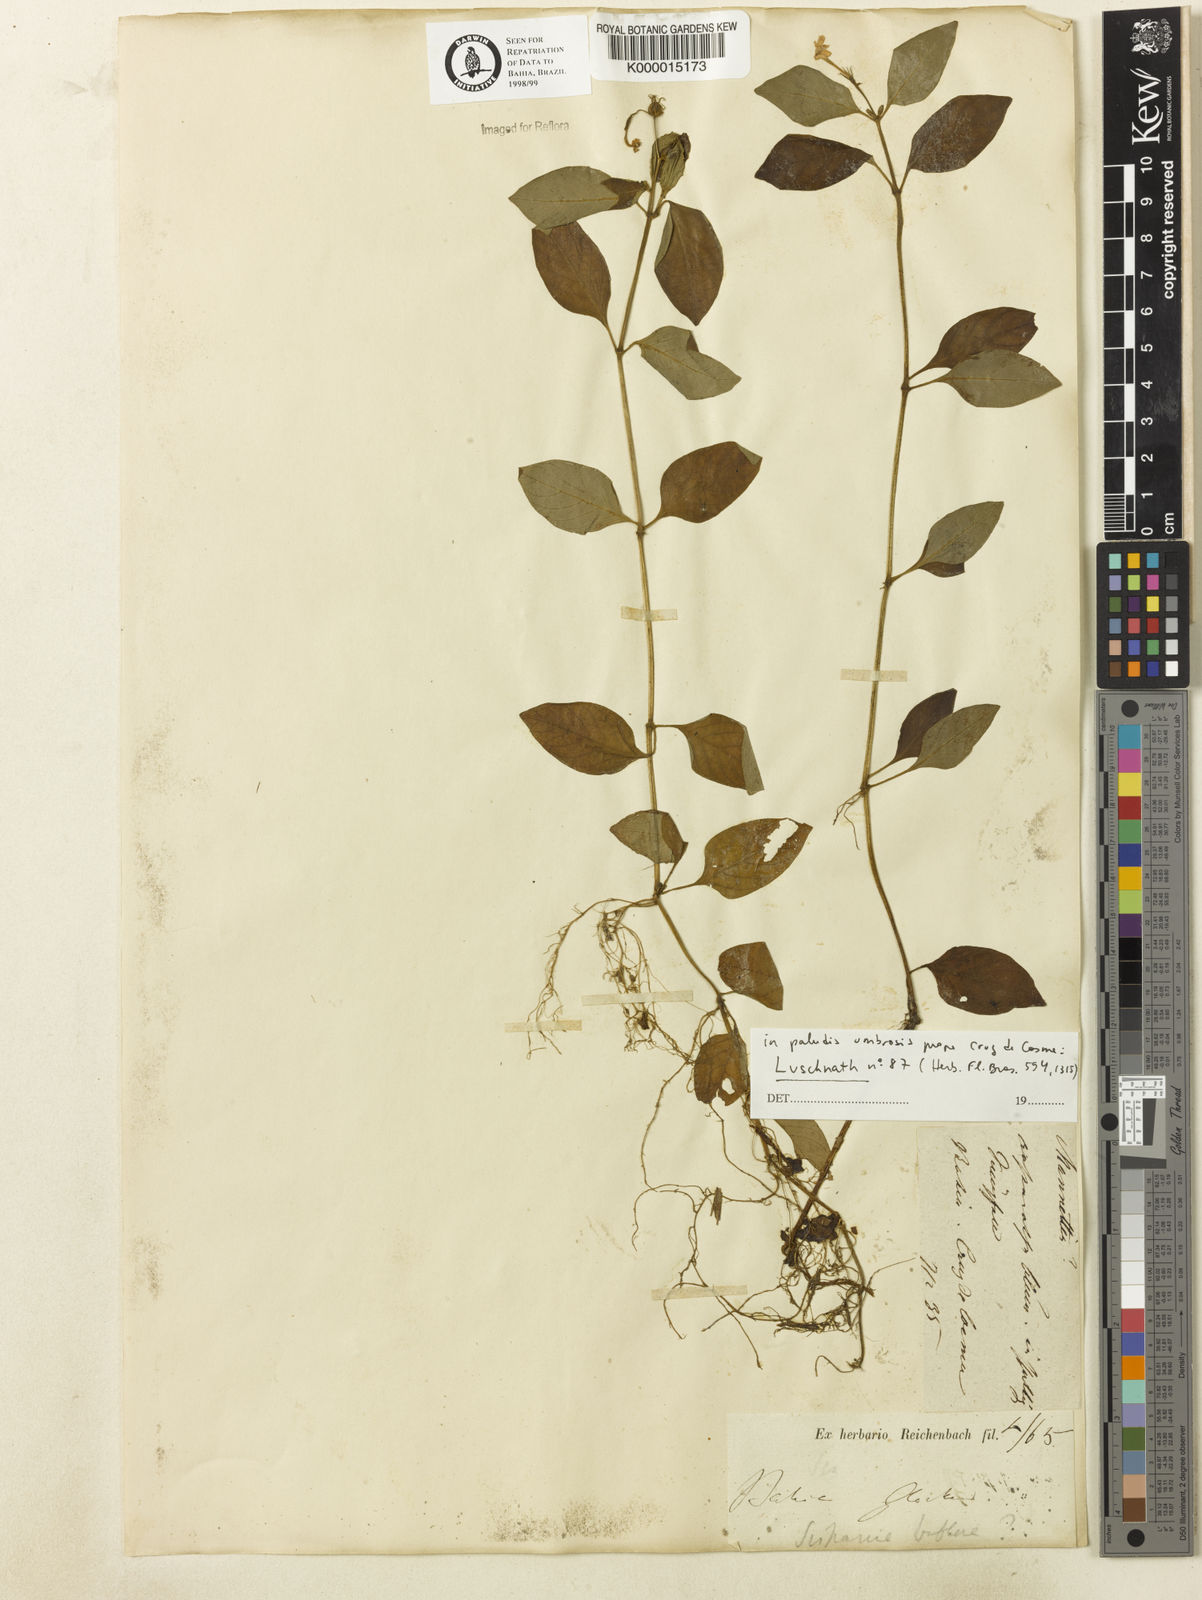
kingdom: Plantae
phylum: Tracheophyta
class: Magnoliopsida
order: Gentianales
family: Rubiaceae
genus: Sipanea
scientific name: Sipanea biflora
